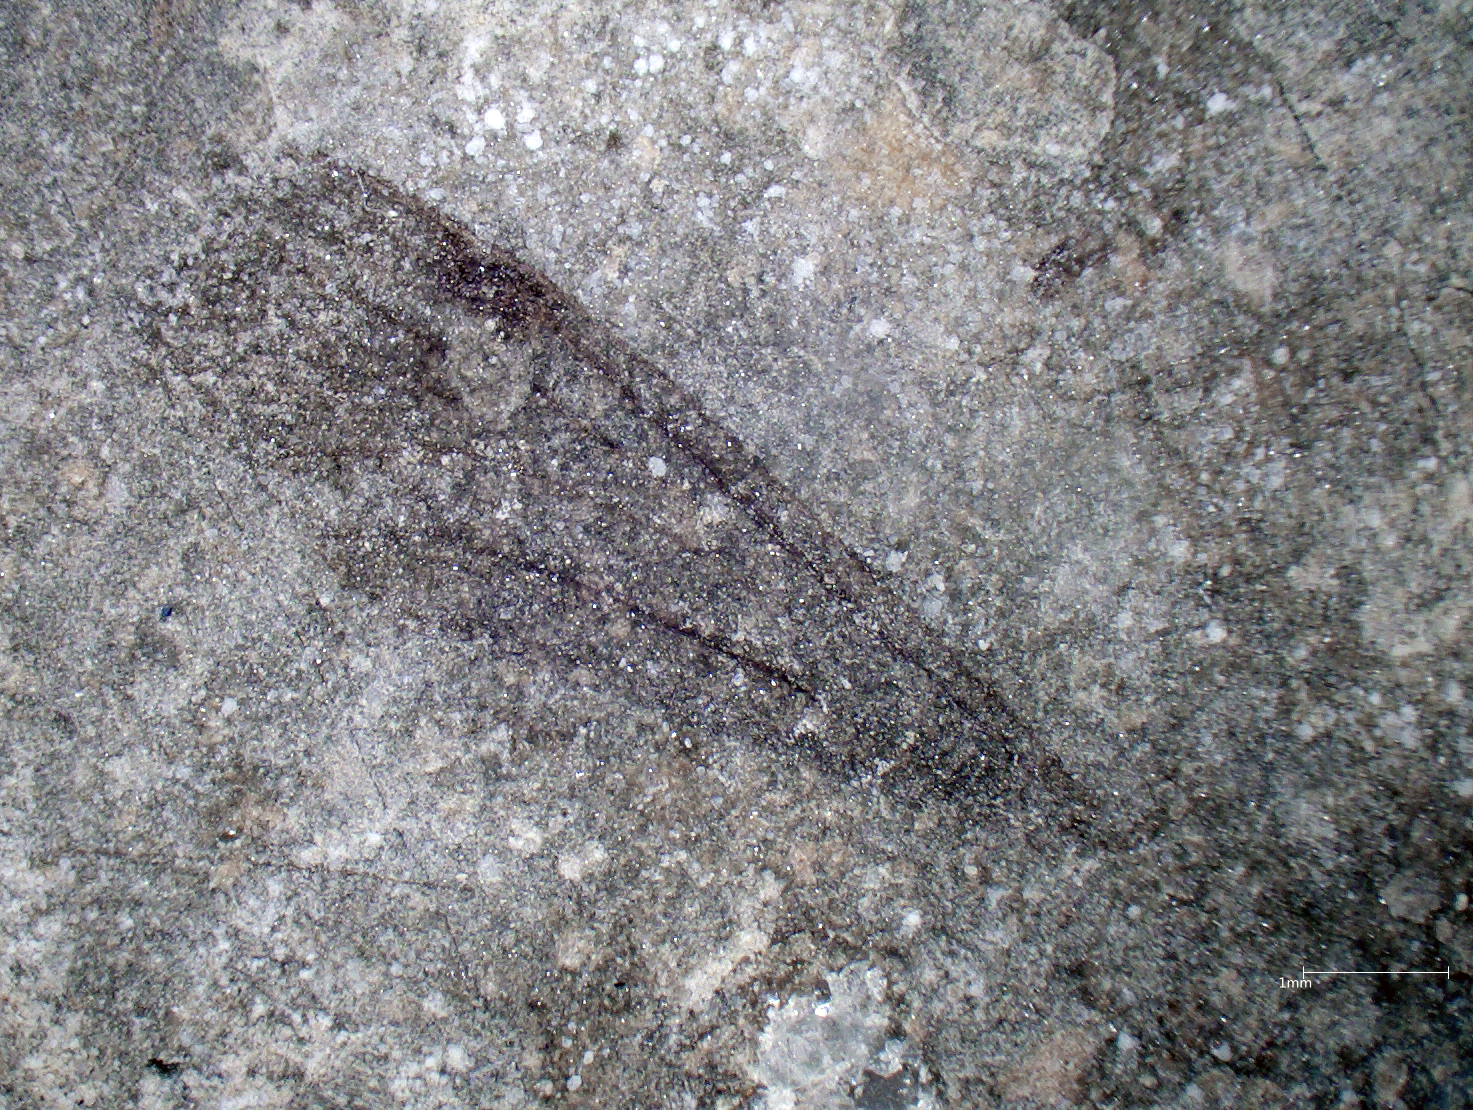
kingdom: Animalia
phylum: Arthropoda
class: Insecta
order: Diptera
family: Limoniidae
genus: Architipula
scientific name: Architipula
